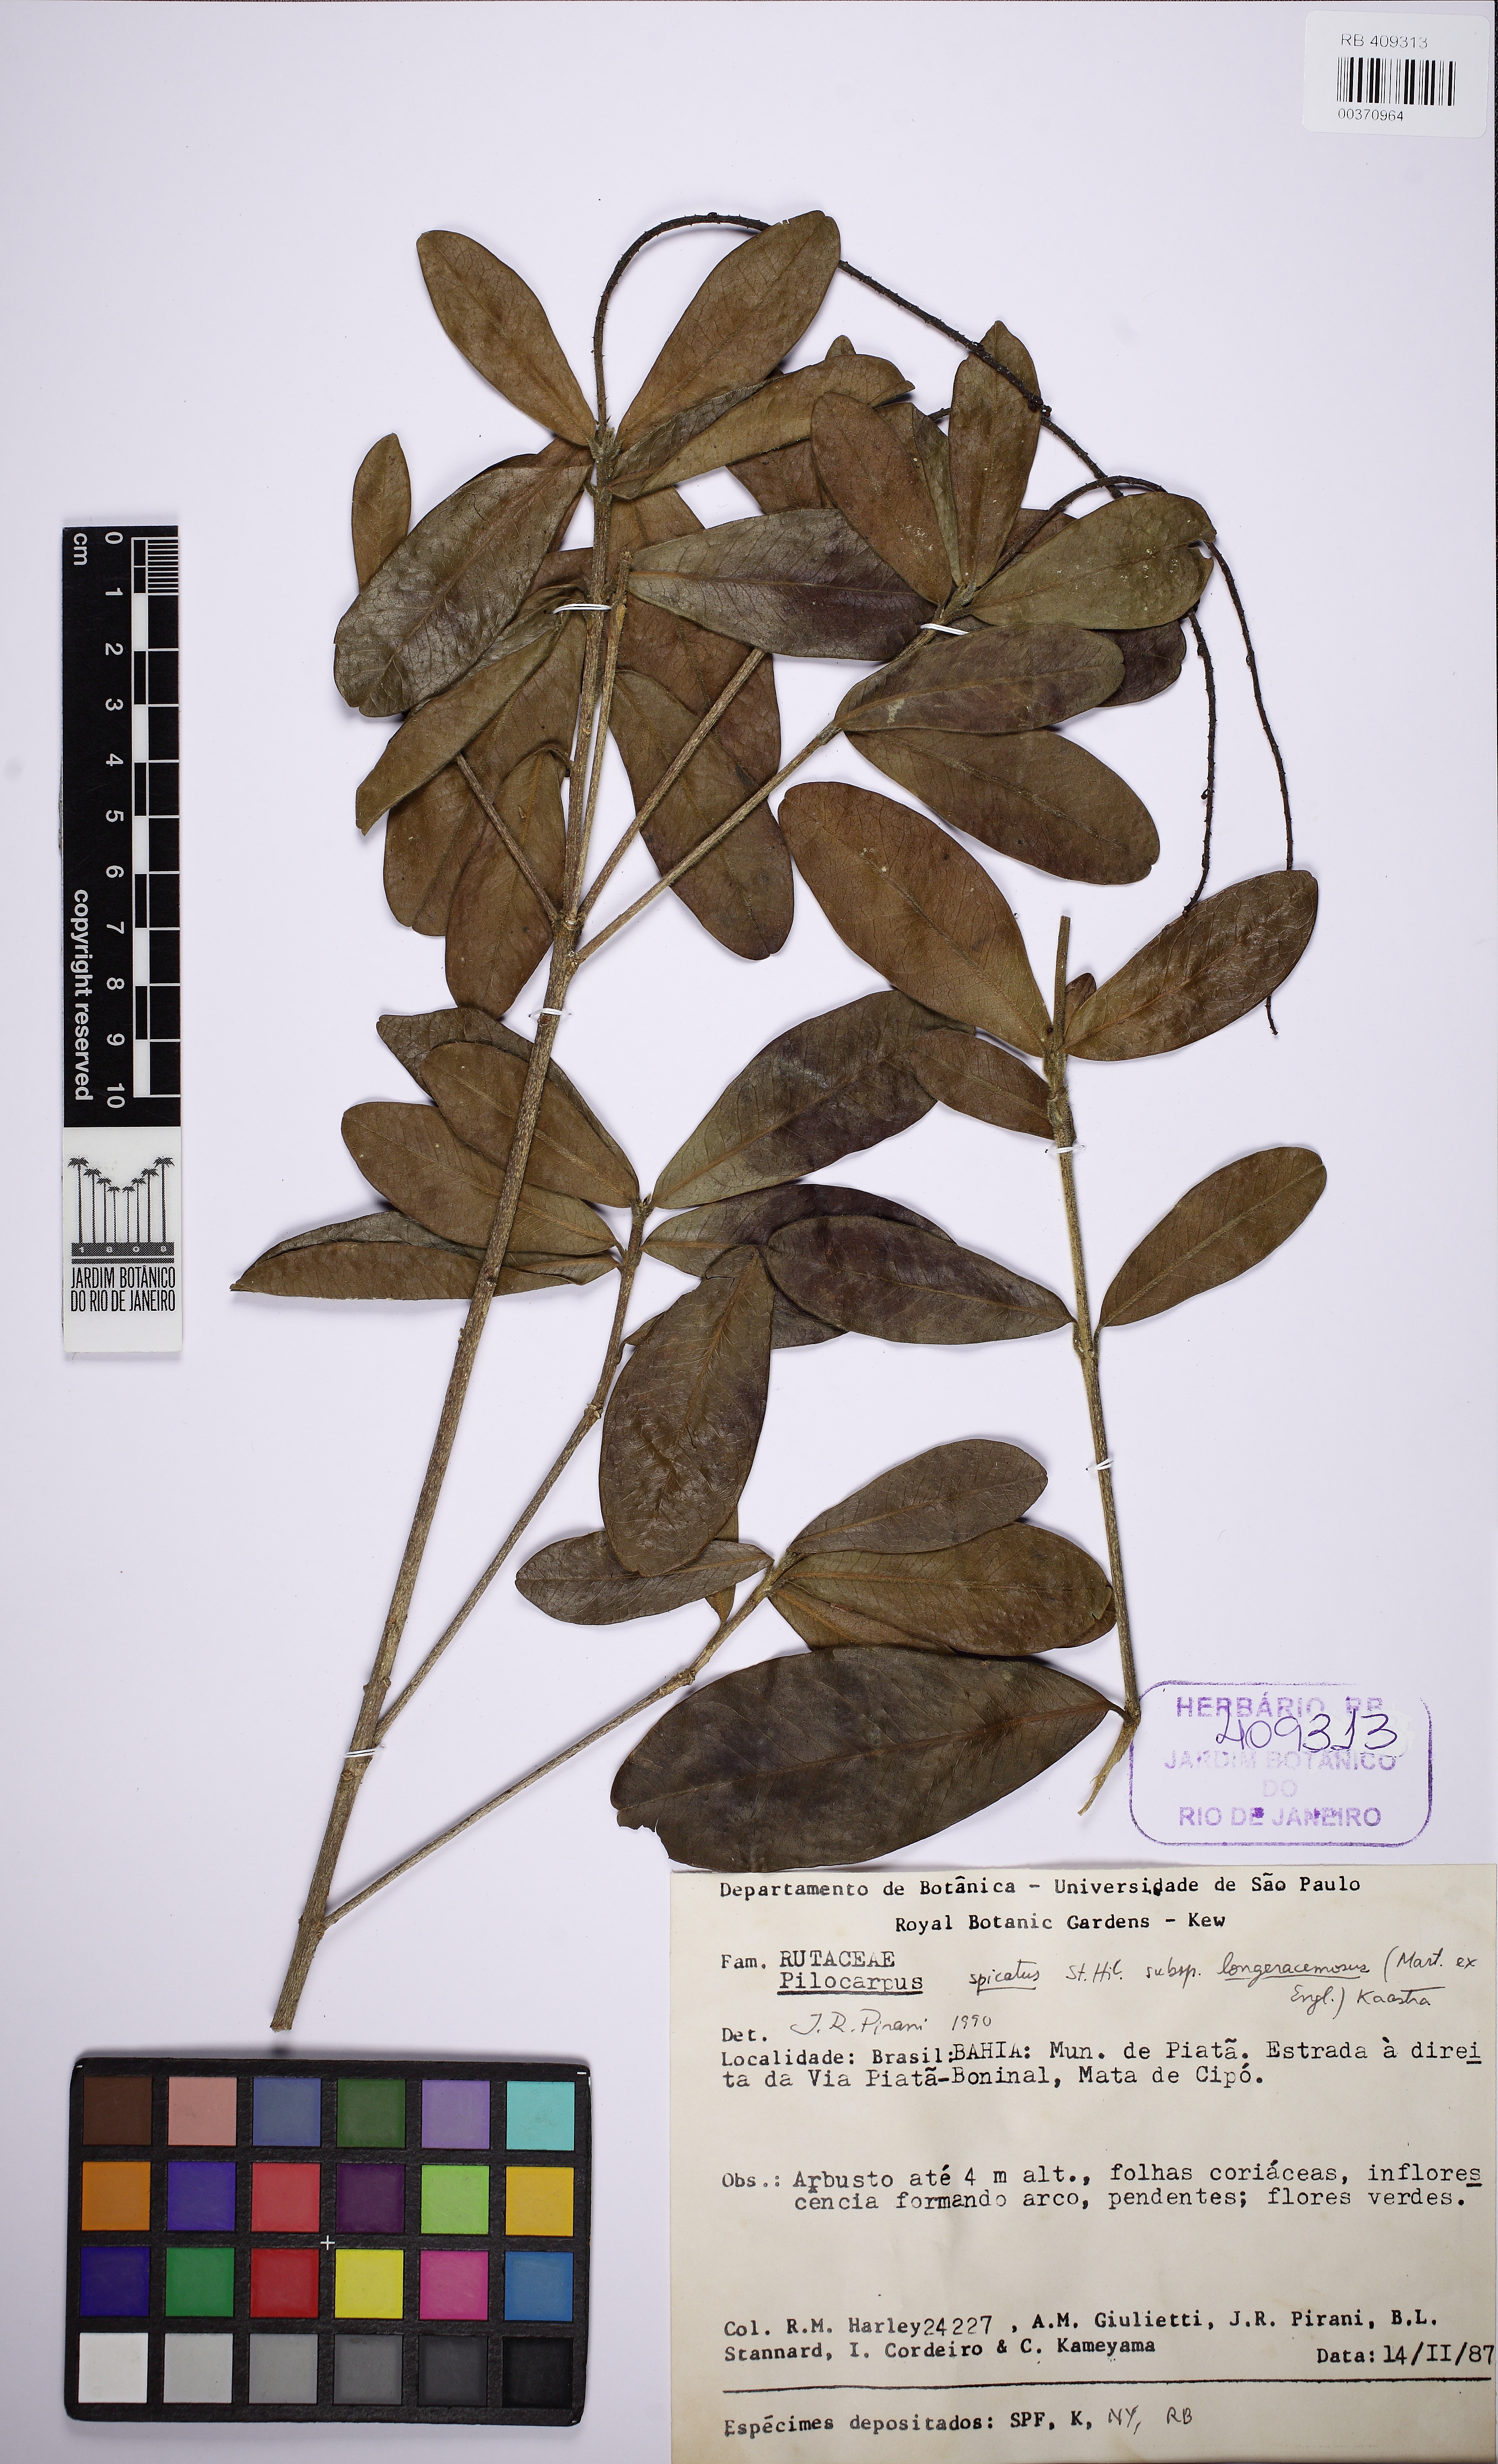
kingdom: Plantae
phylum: Tracheophyta
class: Magnoliopsida
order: Sapindales
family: Rutaceae
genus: Pilocarpus
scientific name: Pilocarpus spicatus
